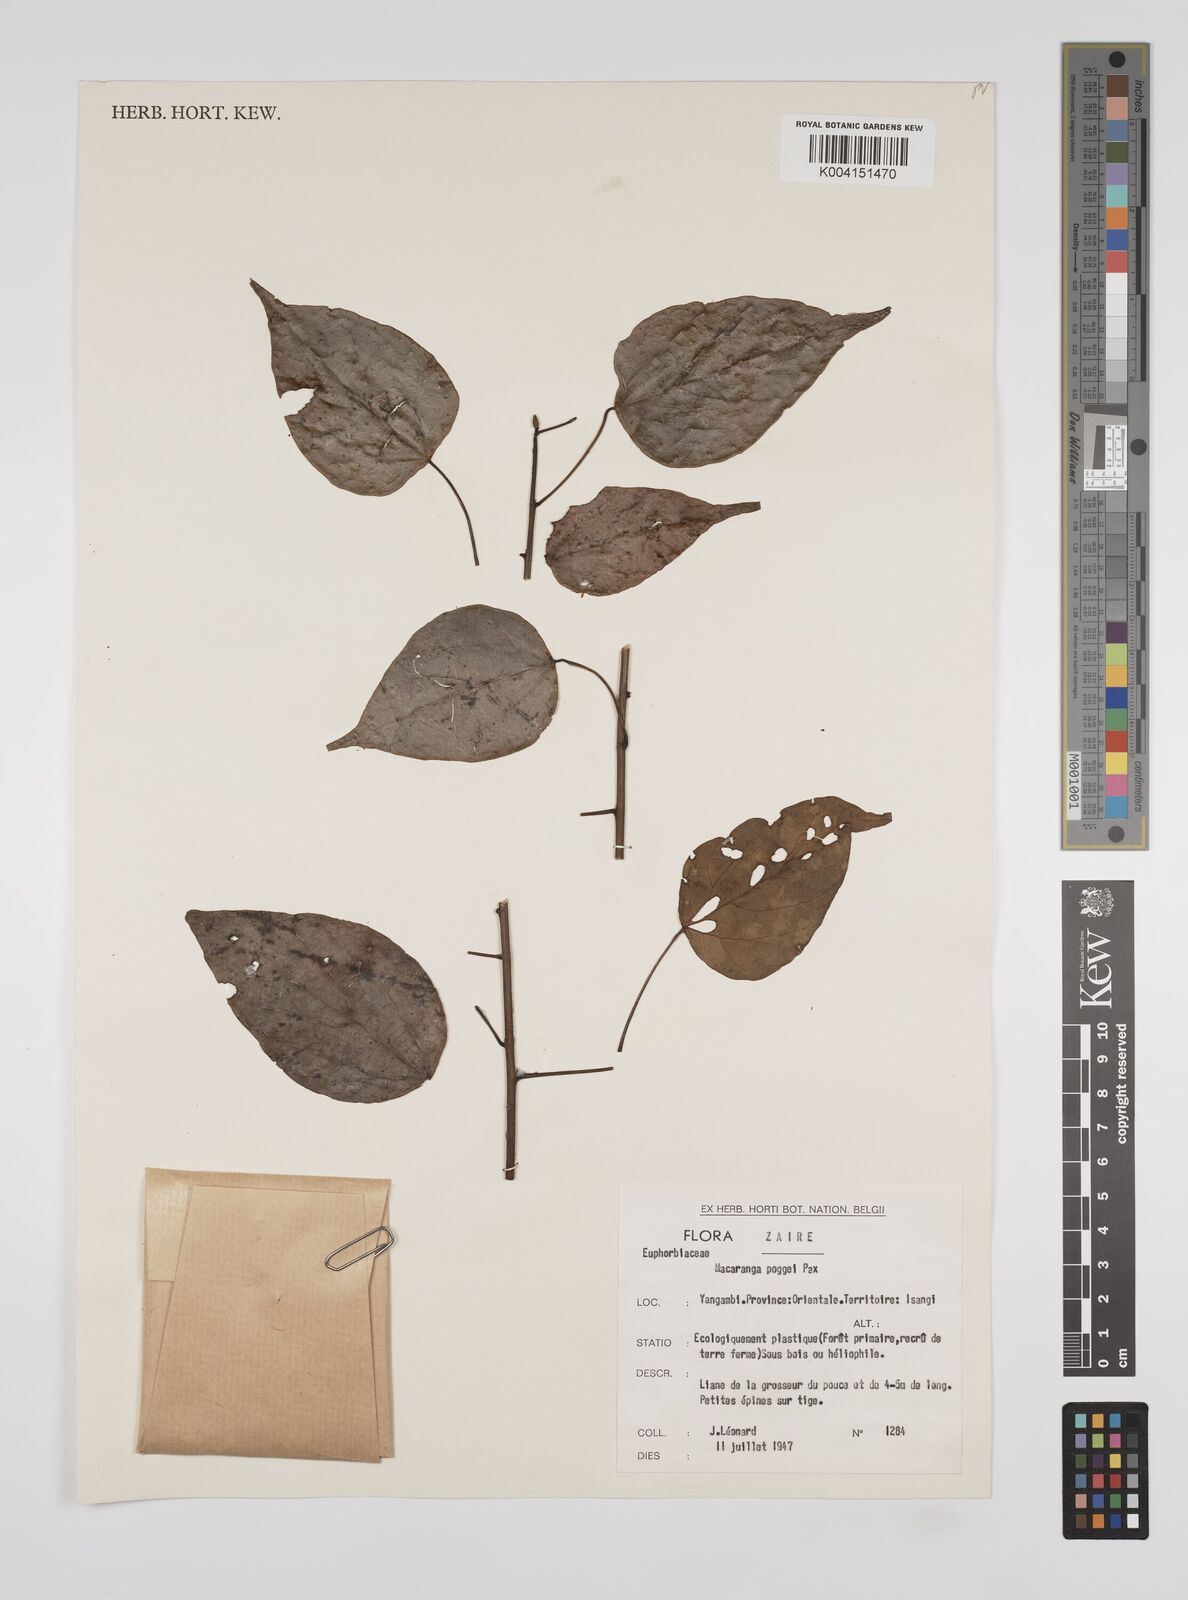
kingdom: Plantae
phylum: Tracheophyta
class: Magnoliopsida
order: Malpighiales
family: Euphorbiaceae
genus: Macaranga
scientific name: Macaranga poggei
